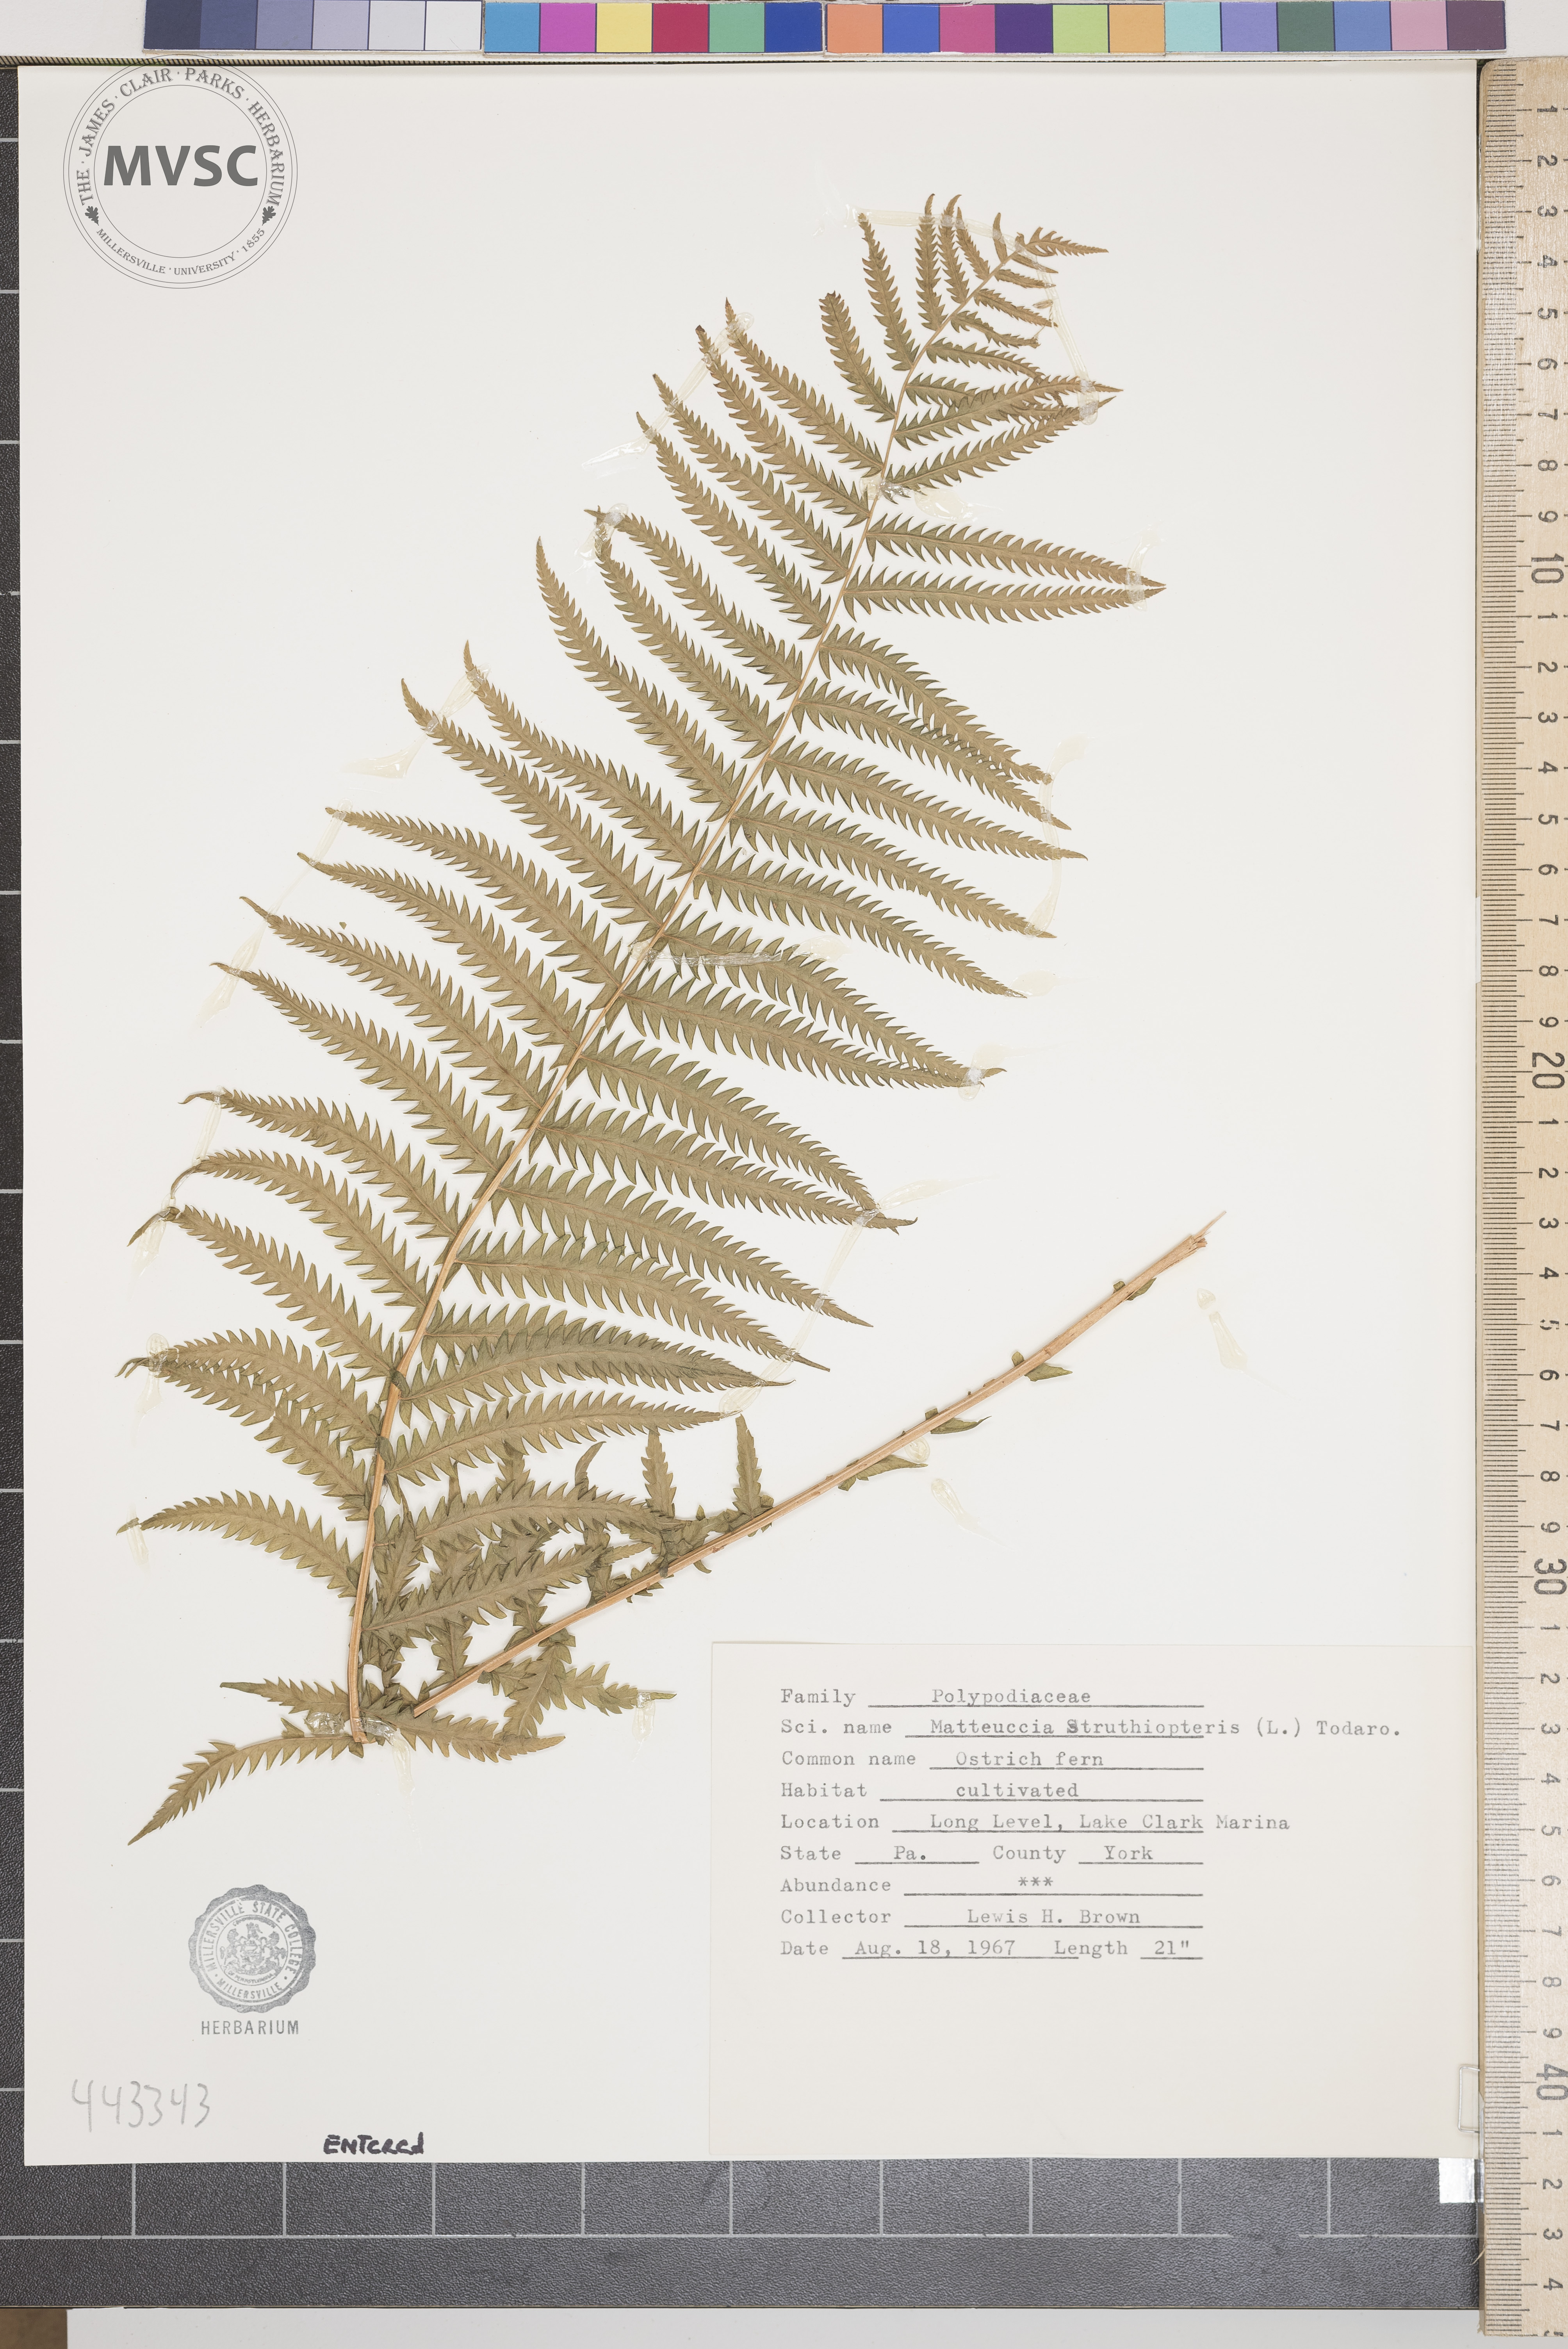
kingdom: Plantae
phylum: Tracheophyta
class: Polypodiopsida
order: Polypodiales
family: Onocleaceae
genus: Matteuccia
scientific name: Matteuccia struthiopteris
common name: Ostrich fern
